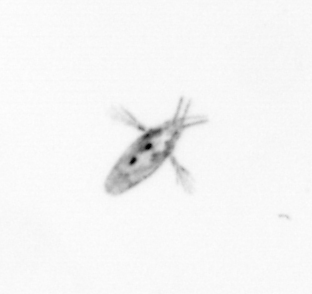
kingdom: Animalia
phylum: Arthropoda
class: Copepoda
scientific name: Copepoda
